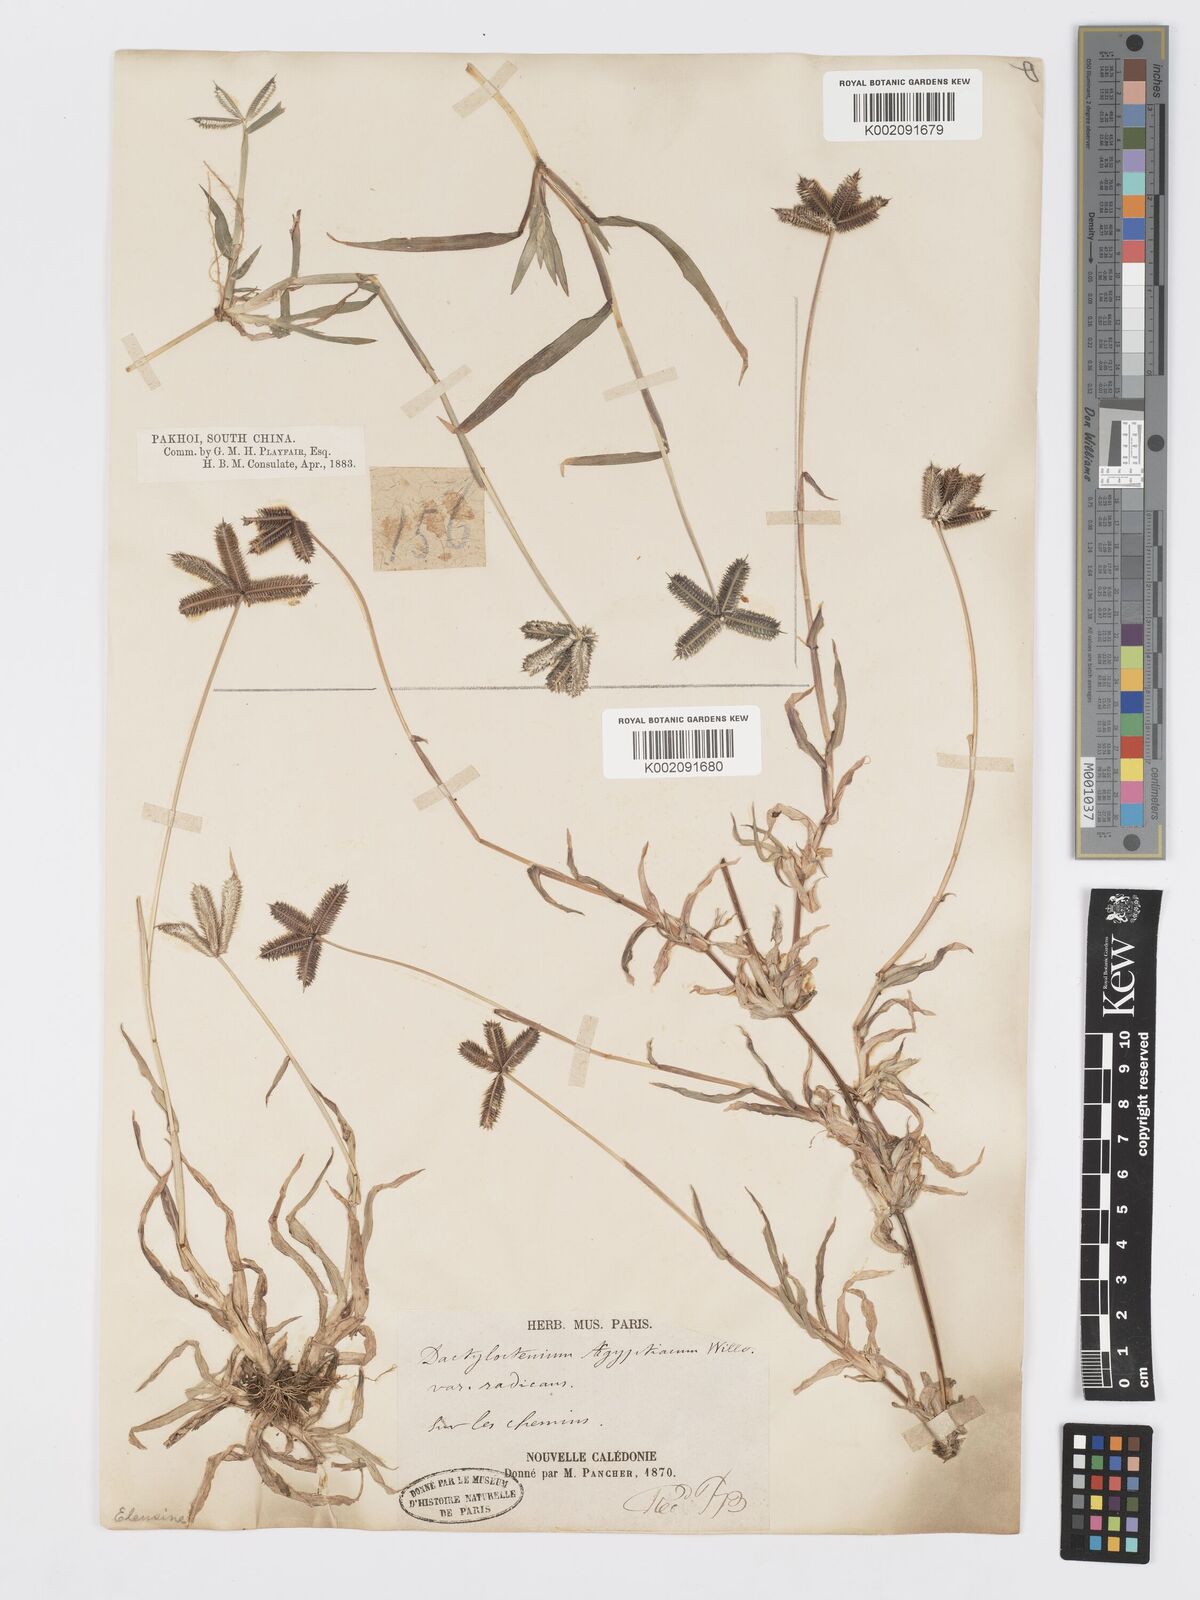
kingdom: Plantae
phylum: Tracheophyta
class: Liliopsida
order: Poales
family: Poaceae
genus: Dactyloctenium
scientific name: Dactyloctenium aegyptium
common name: Egyptian grass
